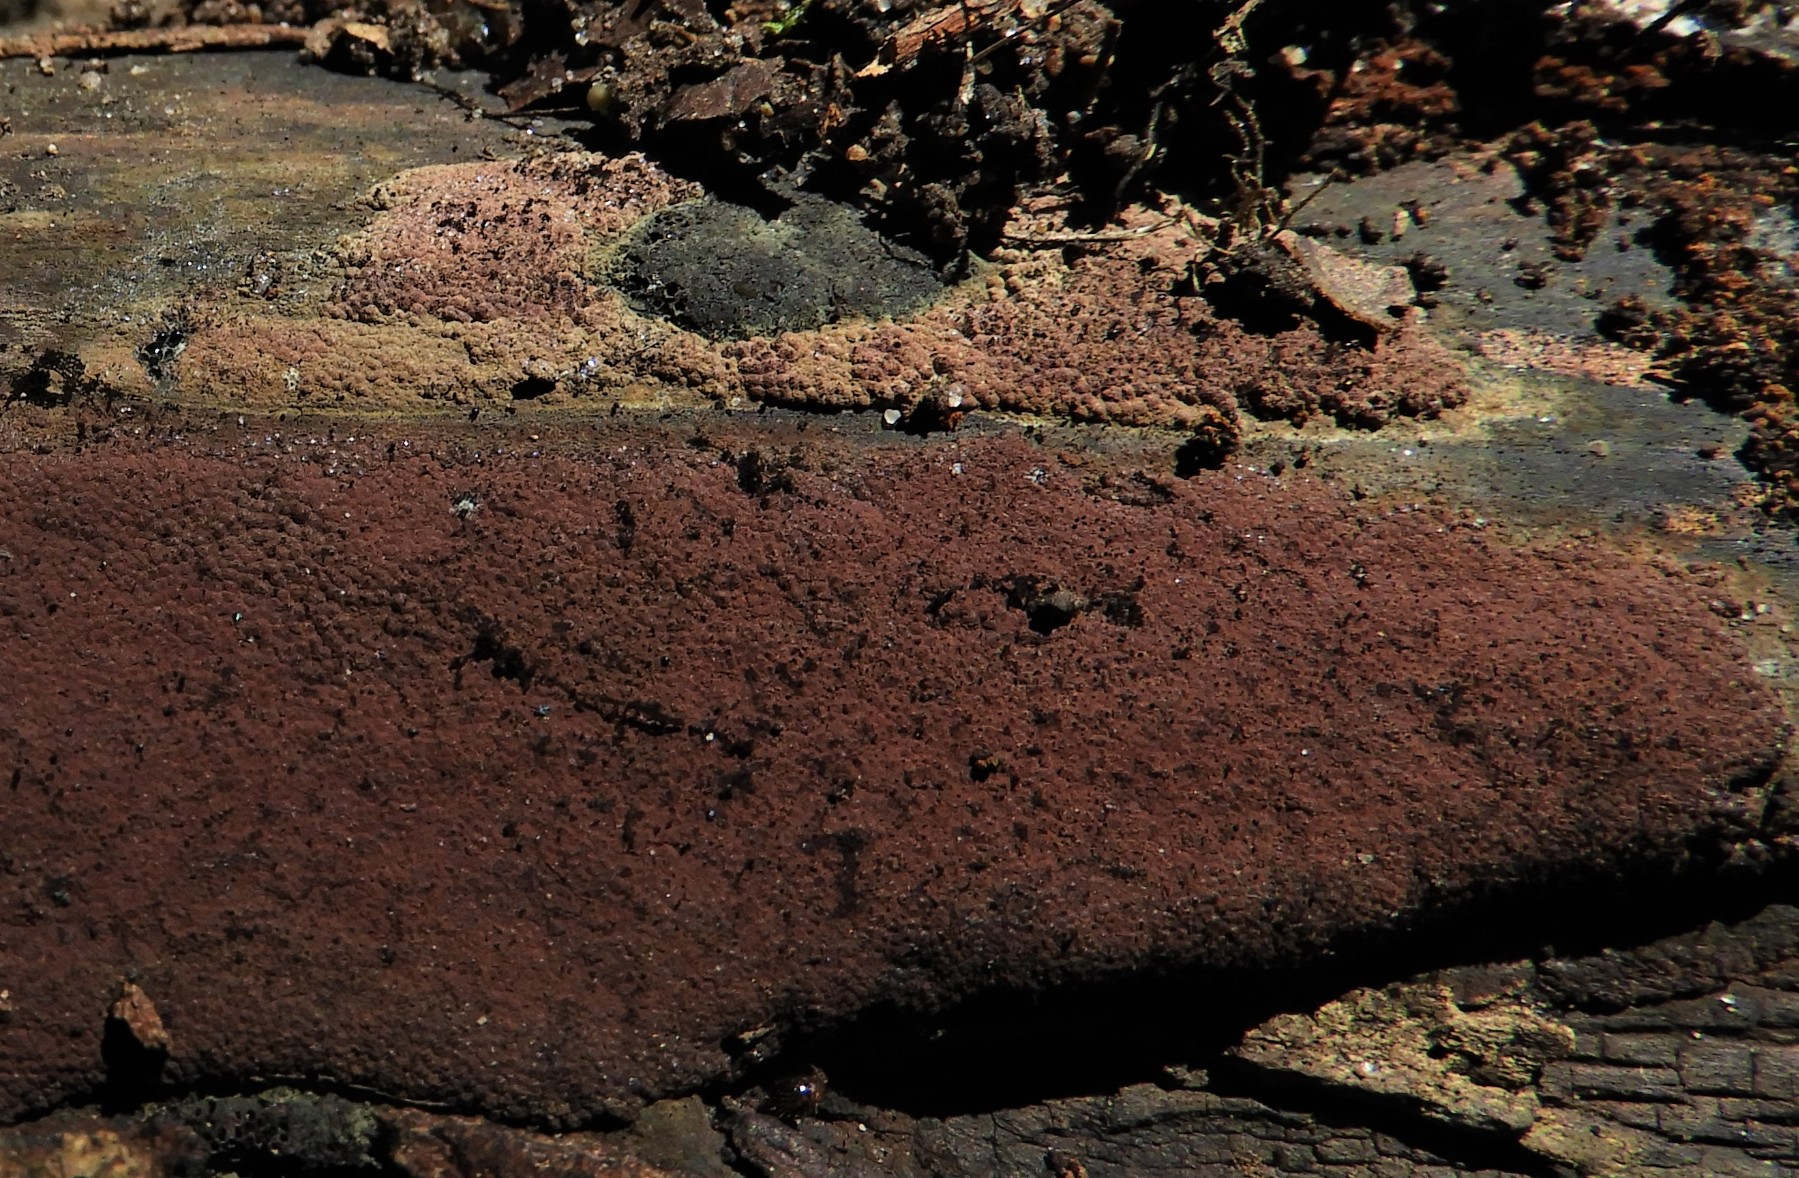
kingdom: Fungi
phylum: Ascomycota
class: Sordariomycetes
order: Xylariales
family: Hypoxylaceae
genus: Hypoxylon
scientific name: Hypoxylon rubiginosum
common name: rustfarvet kulbær
